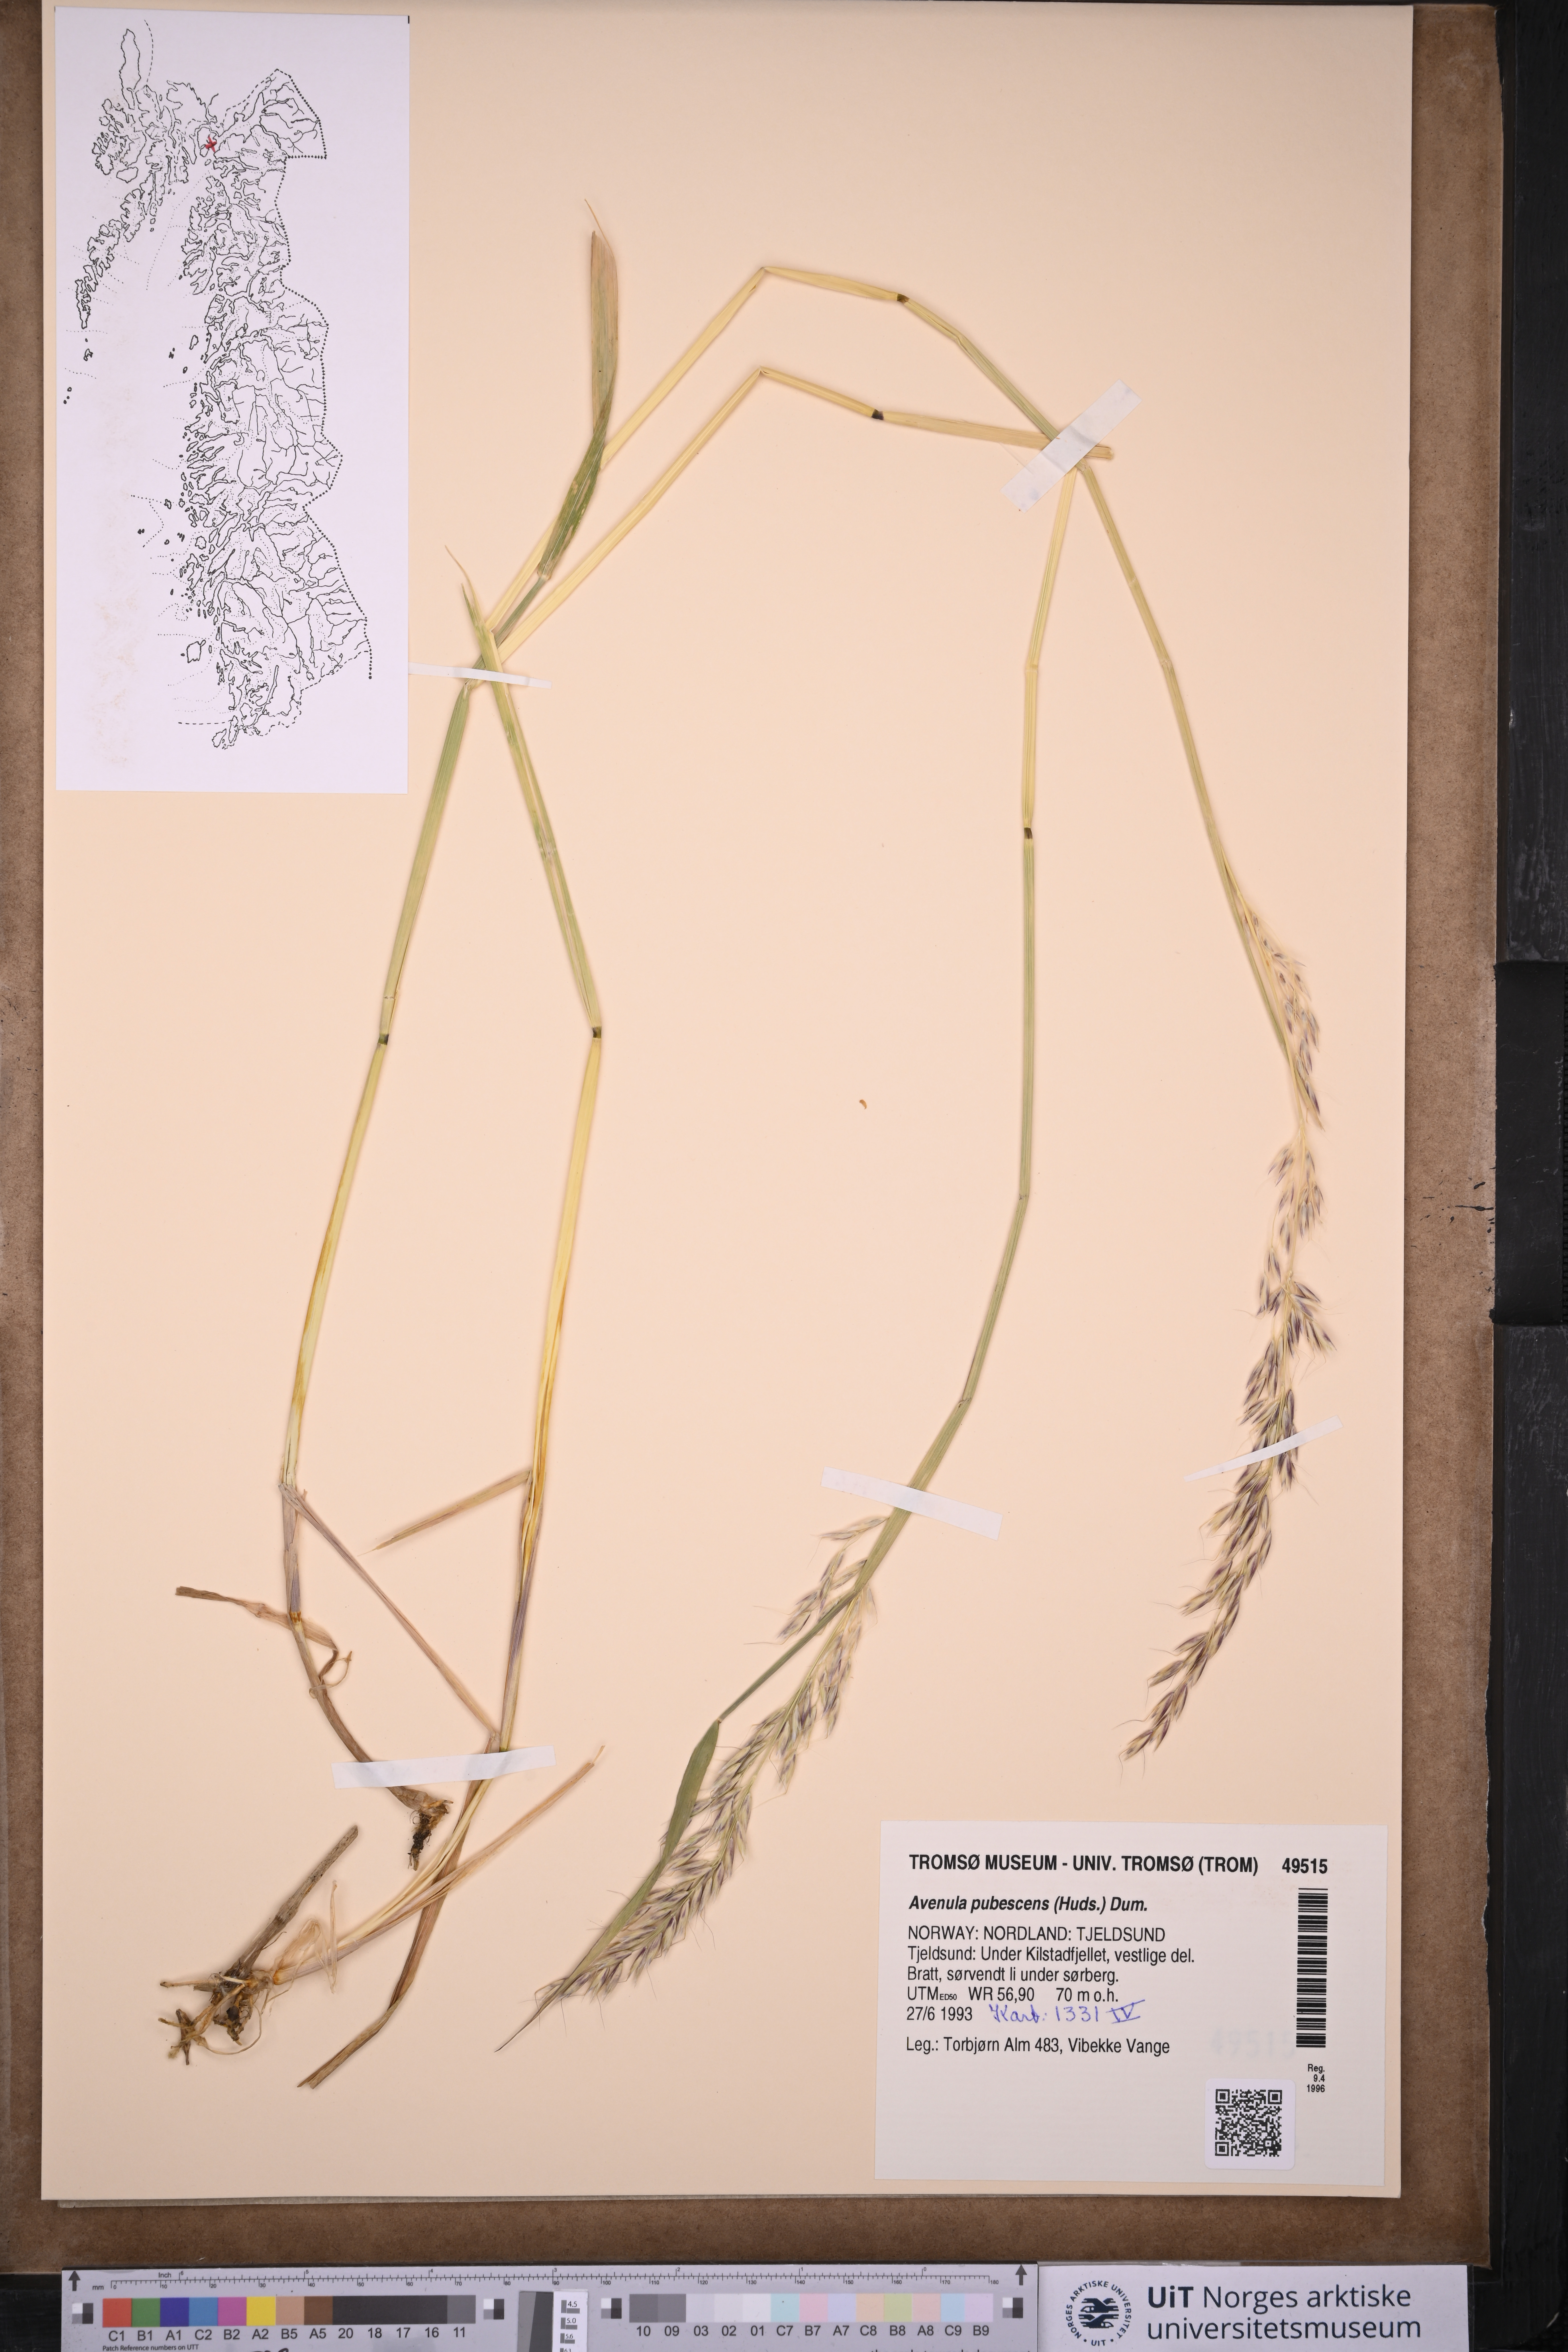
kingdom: Plantae
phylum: Tracheophyta
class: Liliopsida
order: Poales
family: Poaceae
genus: Avenula
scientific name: Avenula pubescens
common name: Downy alpine oatgrass
